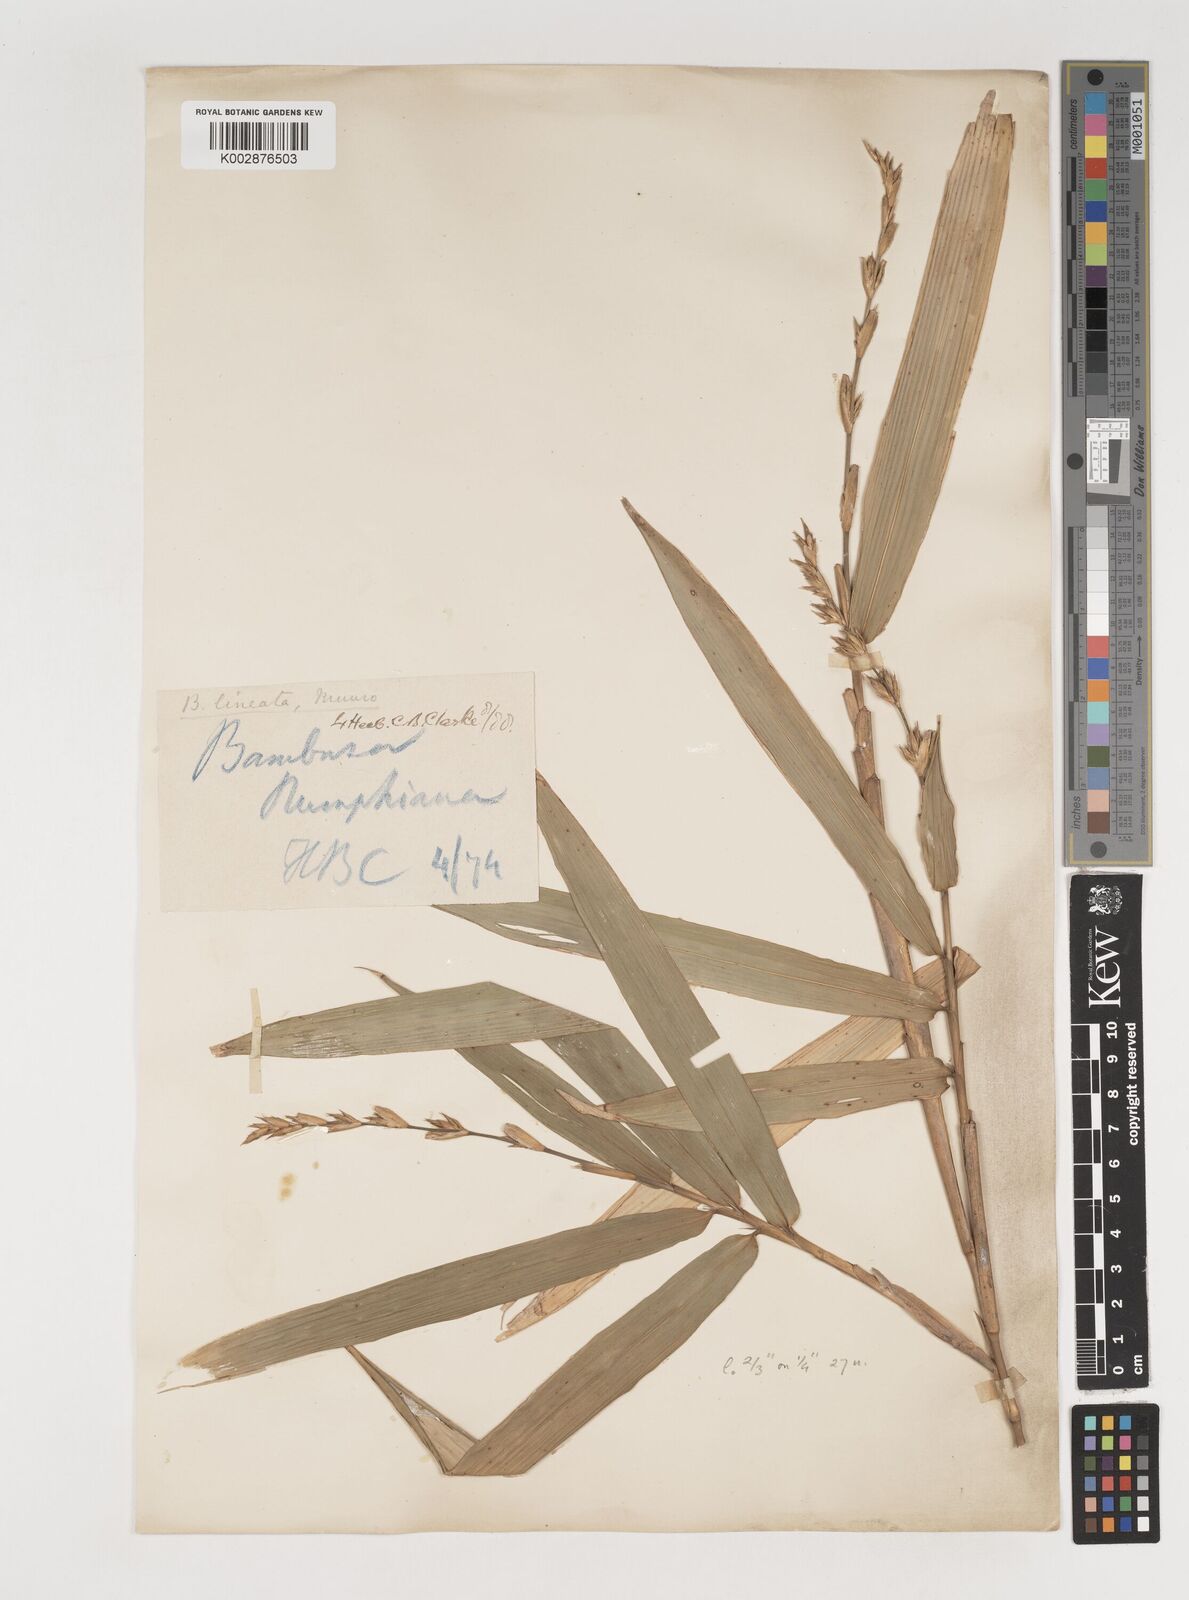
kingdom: Plantae
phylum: Tracheophyta
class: Liliopsida
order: Poales
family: Poaceae
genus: Neololeba
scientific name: Neololeba amahussana
